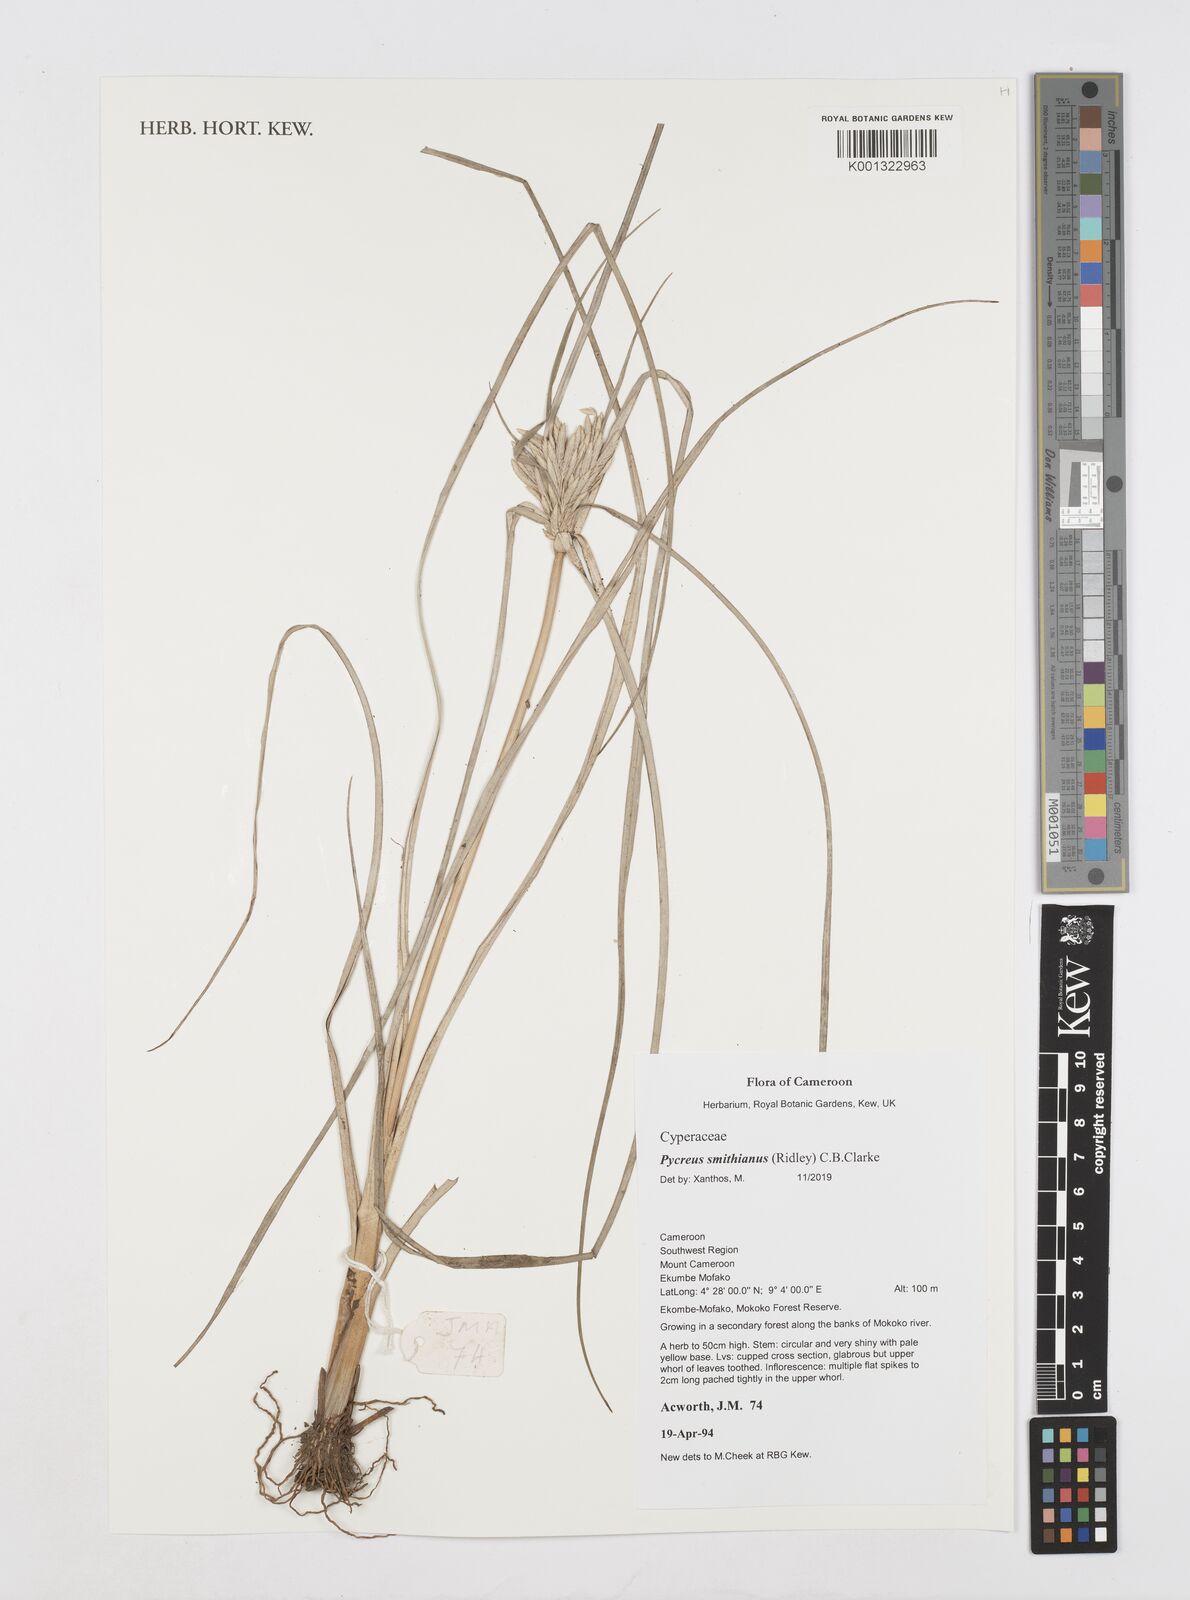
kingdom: Plantae
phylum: Tracheophyta
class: Liliopsida
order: Poales
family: Cyperaceae
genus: Cyperus
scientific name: Cyperus smithianus
